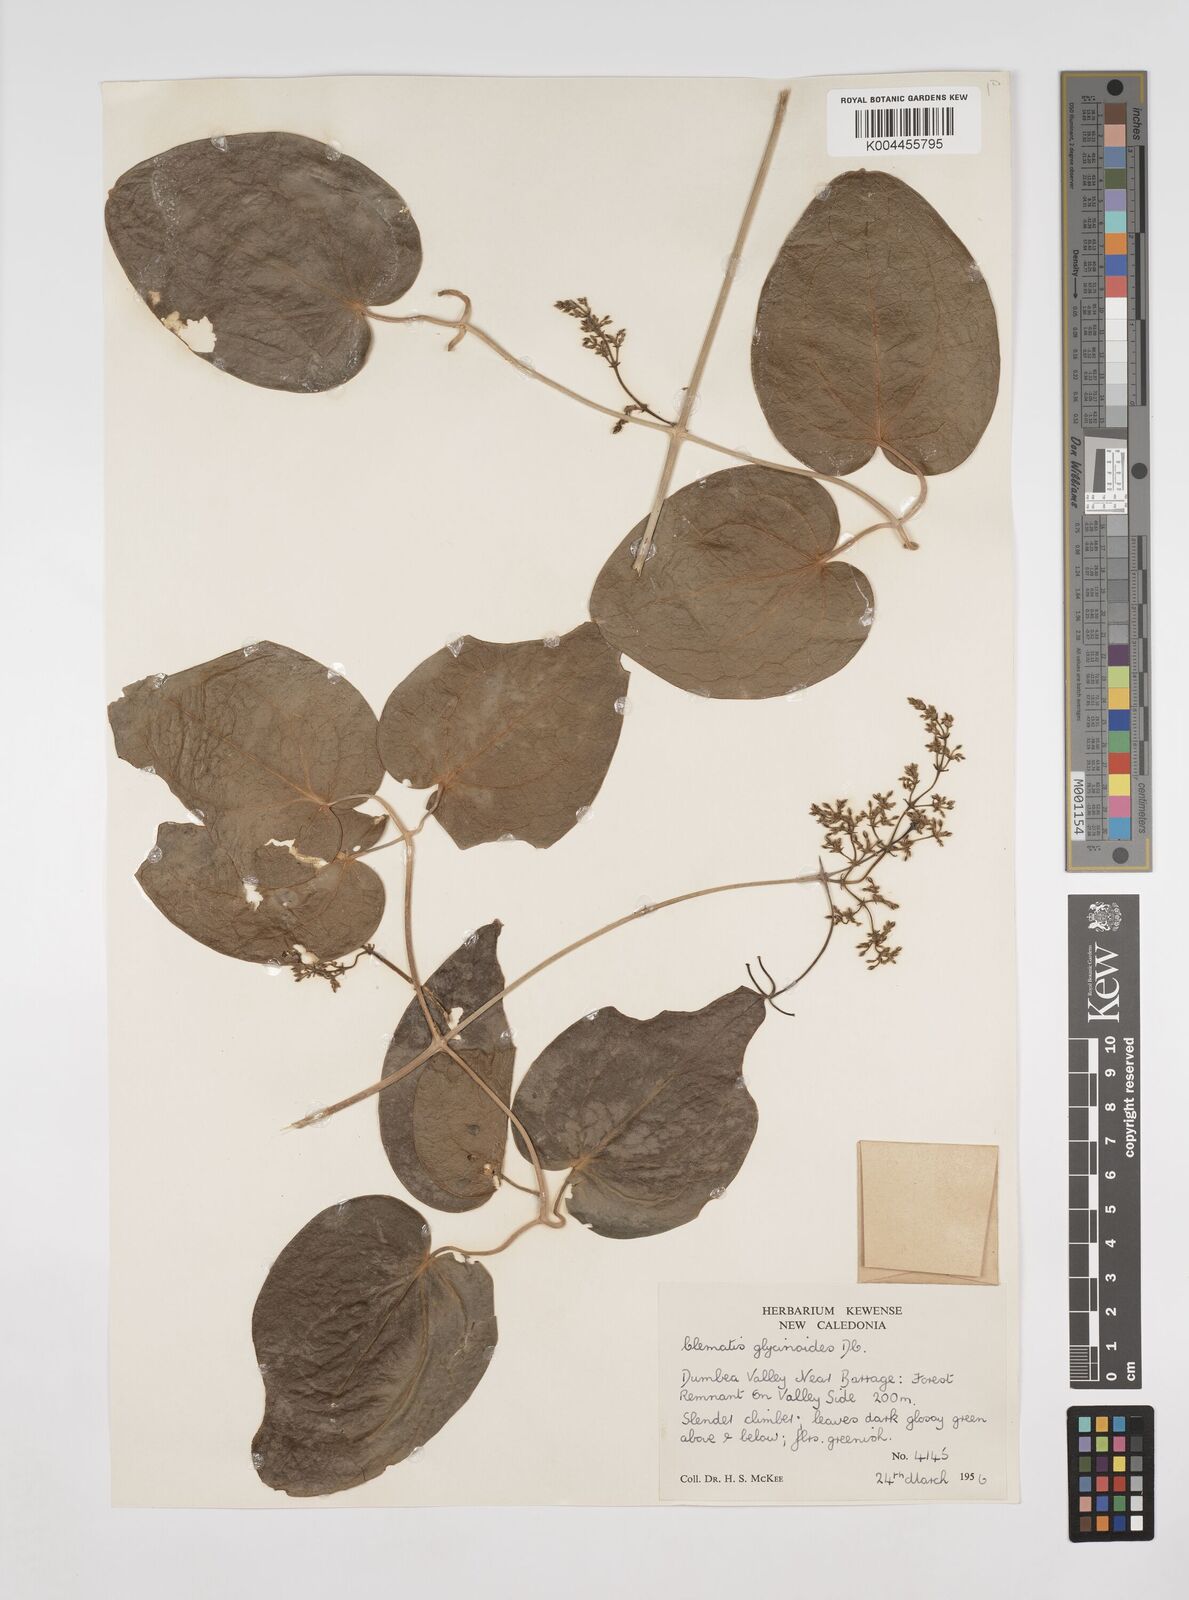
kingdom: Plantae
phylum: Tracheophyta
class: Magnoliopsida
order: Ranunculales
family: Ranunculaceae
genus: Clematis
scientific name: Clematis glycinoides
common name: Forest clematis
